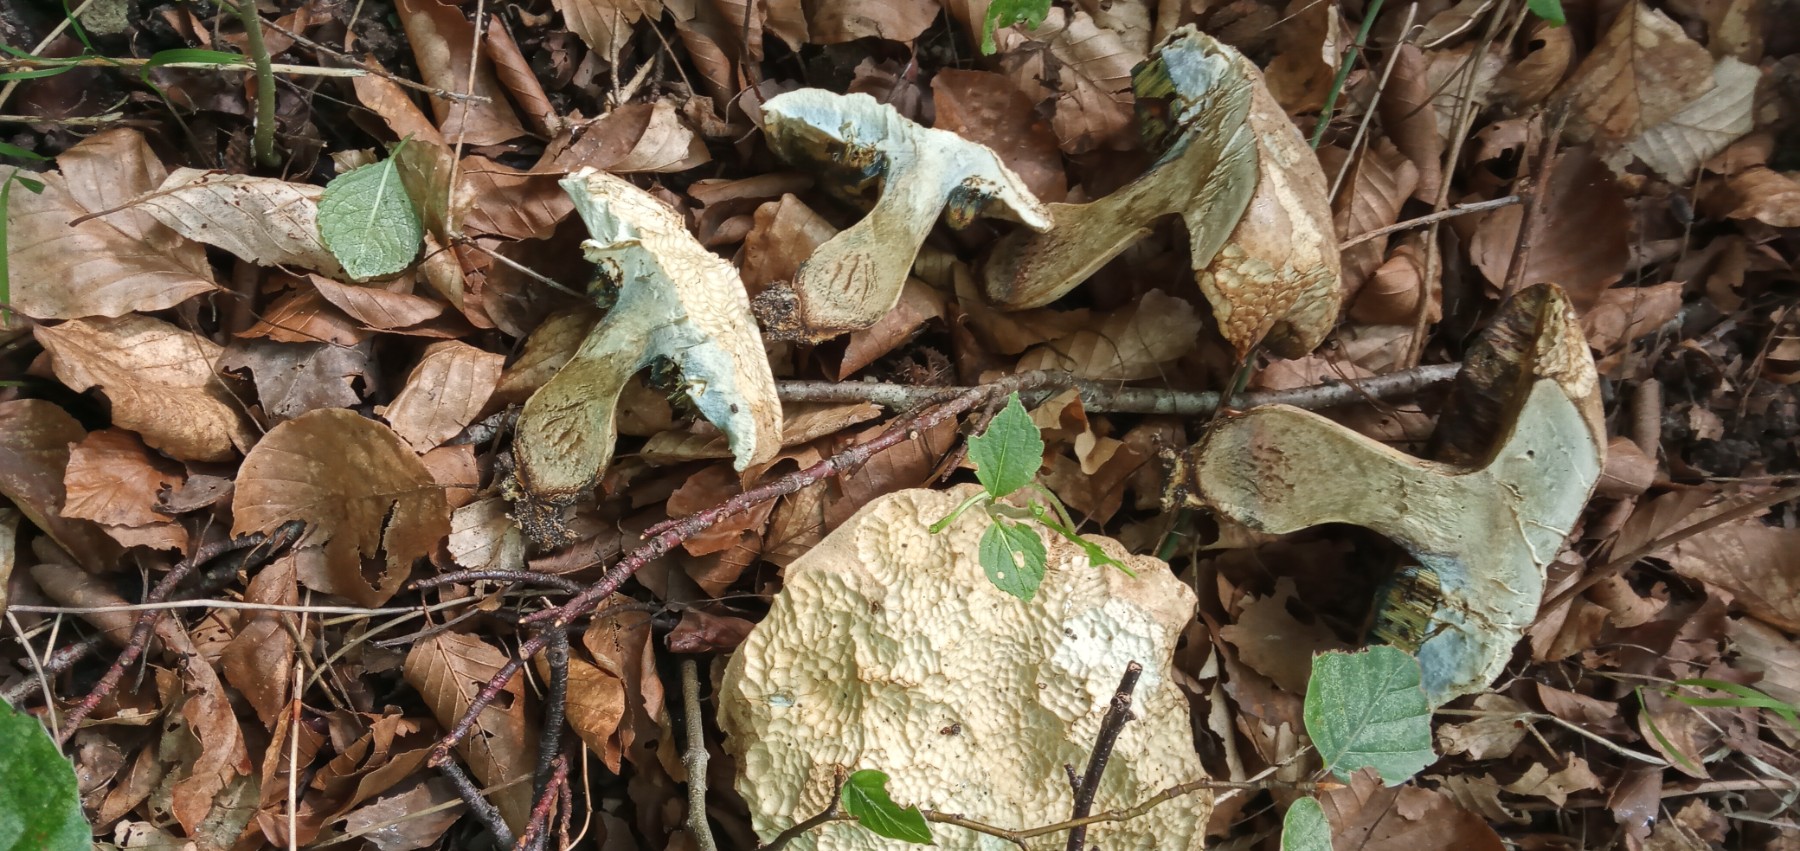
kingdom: Fungi
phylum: Basidiomycota
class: Agaricomycetes
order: Boletales
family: Boletaceae
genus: Caloboletus
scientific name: Caloboletus radicans
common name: rod-rørhat
